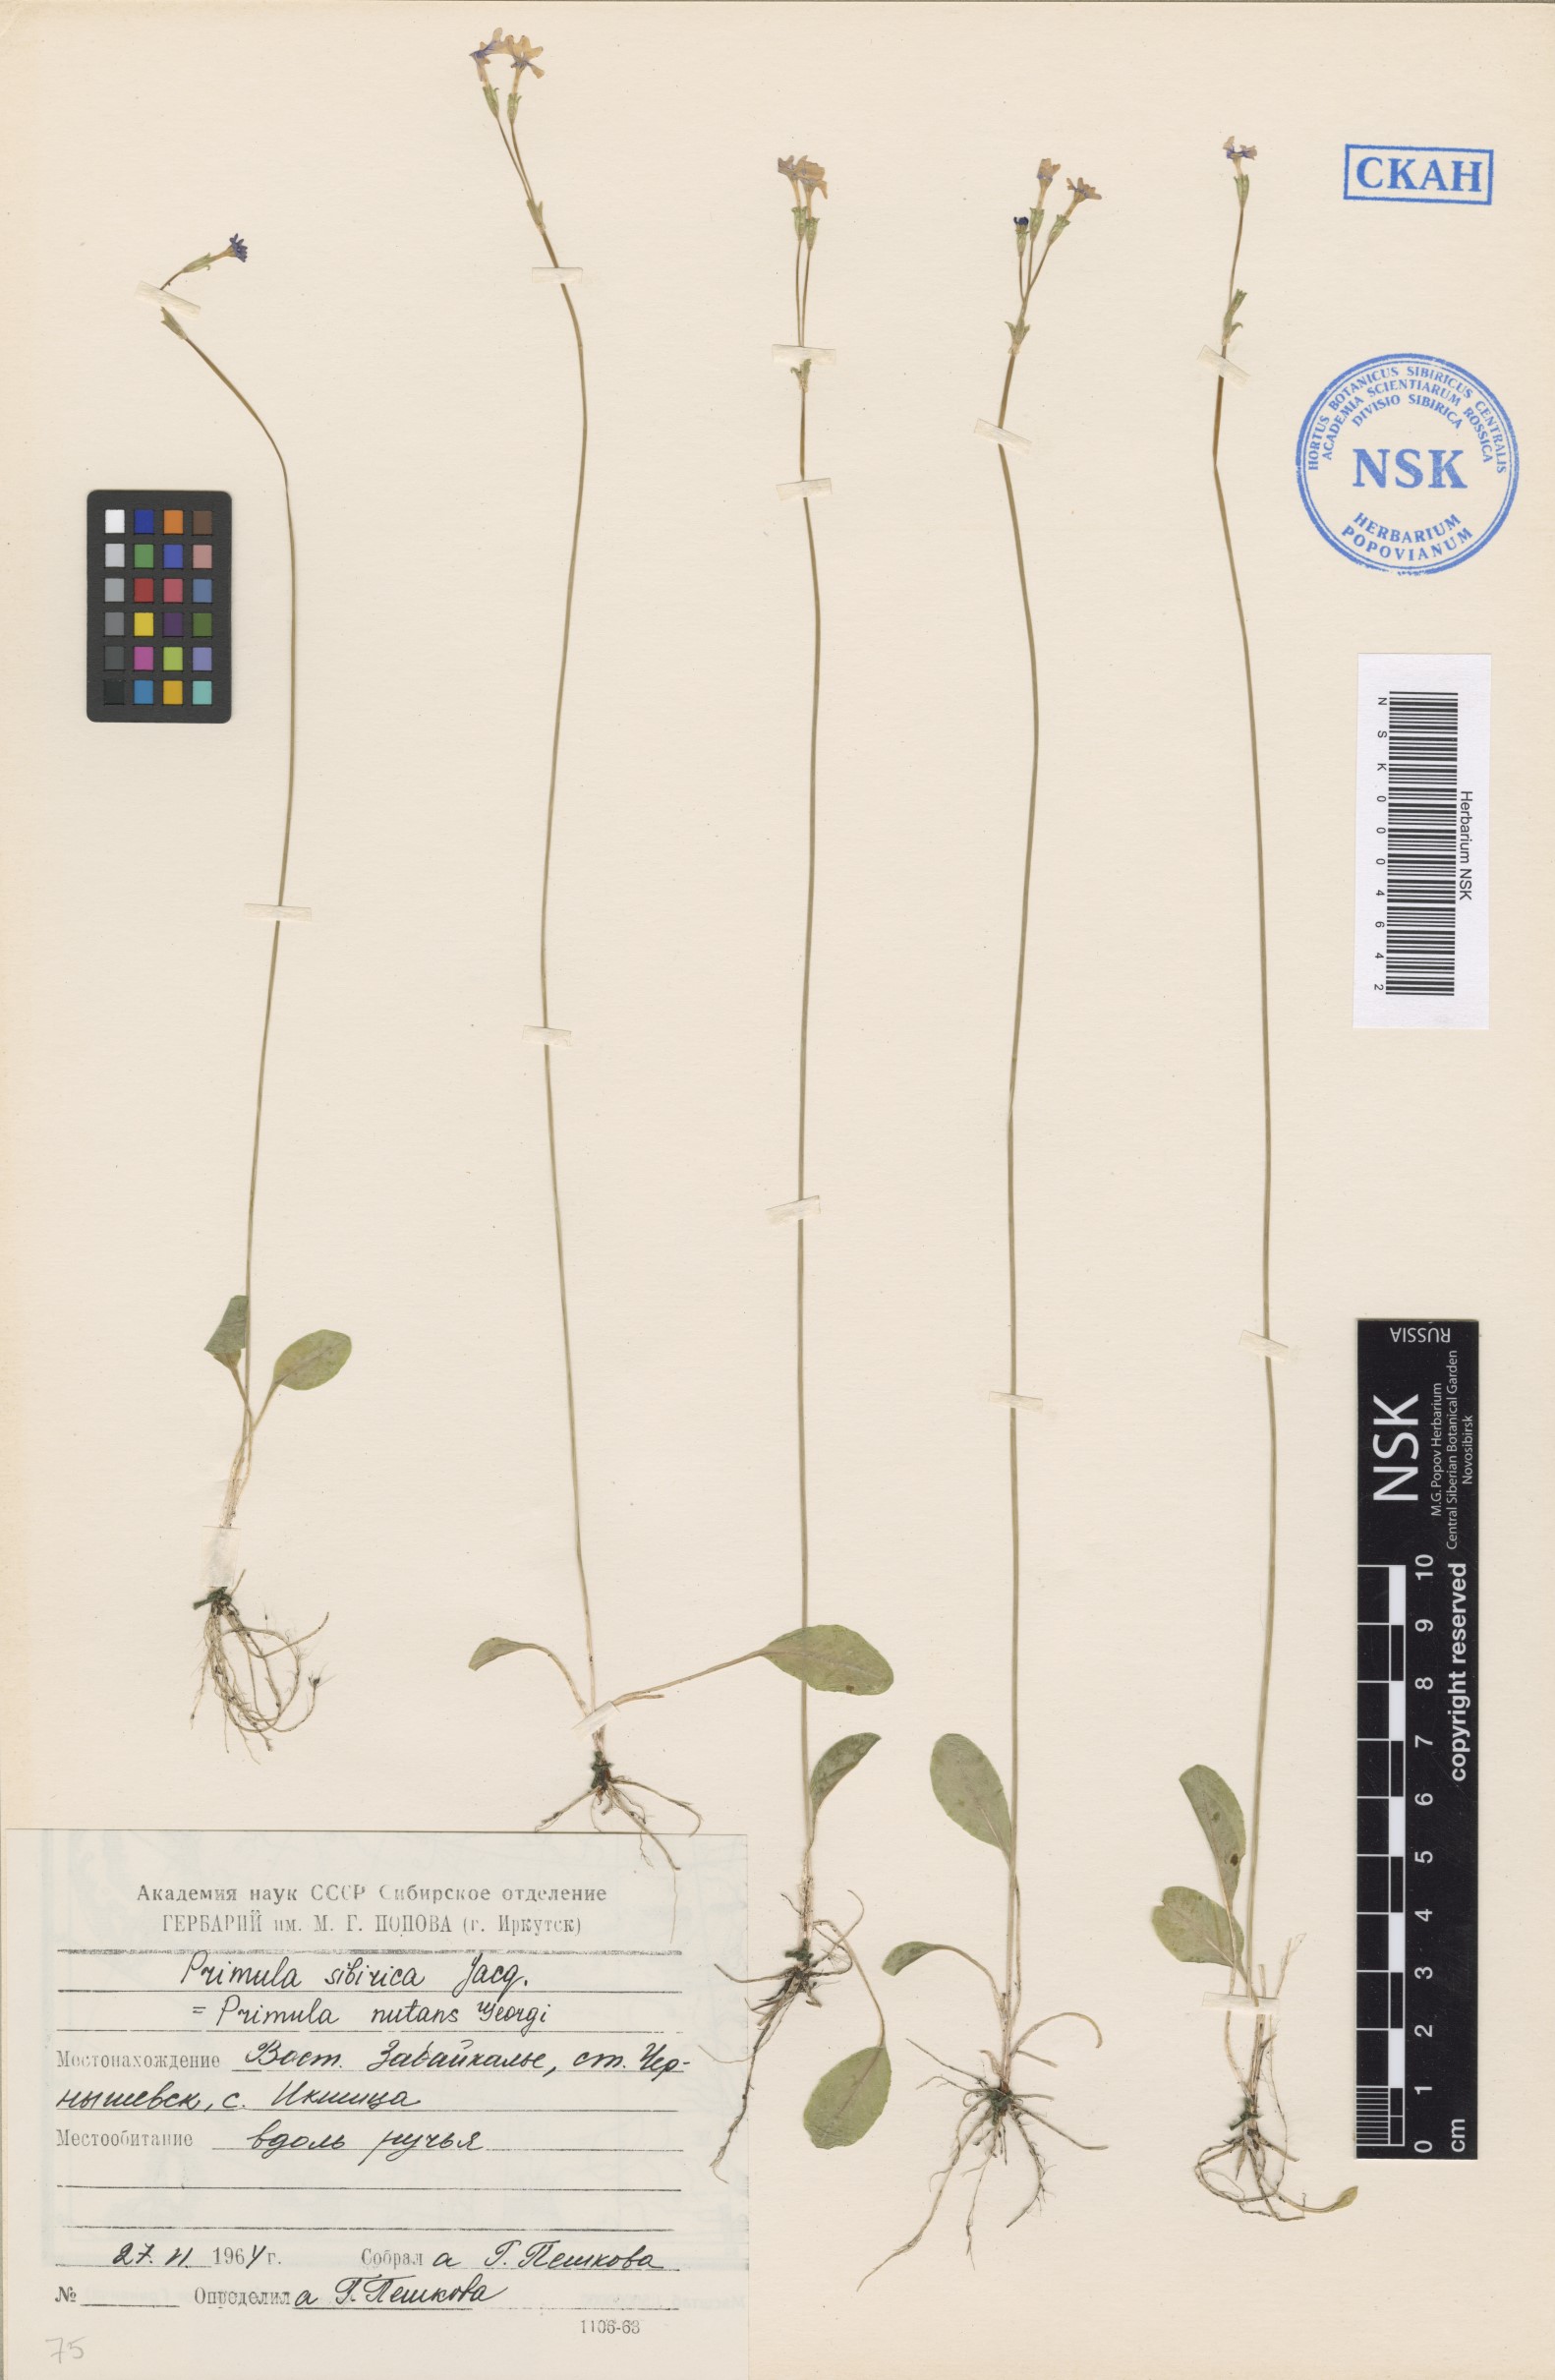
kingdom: Plantae
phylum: Tracheophyta
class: Magnoliopsida
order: Ericales
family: Primulaceae
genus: Primula
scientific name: Primula nutans
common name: Siberian primrose
